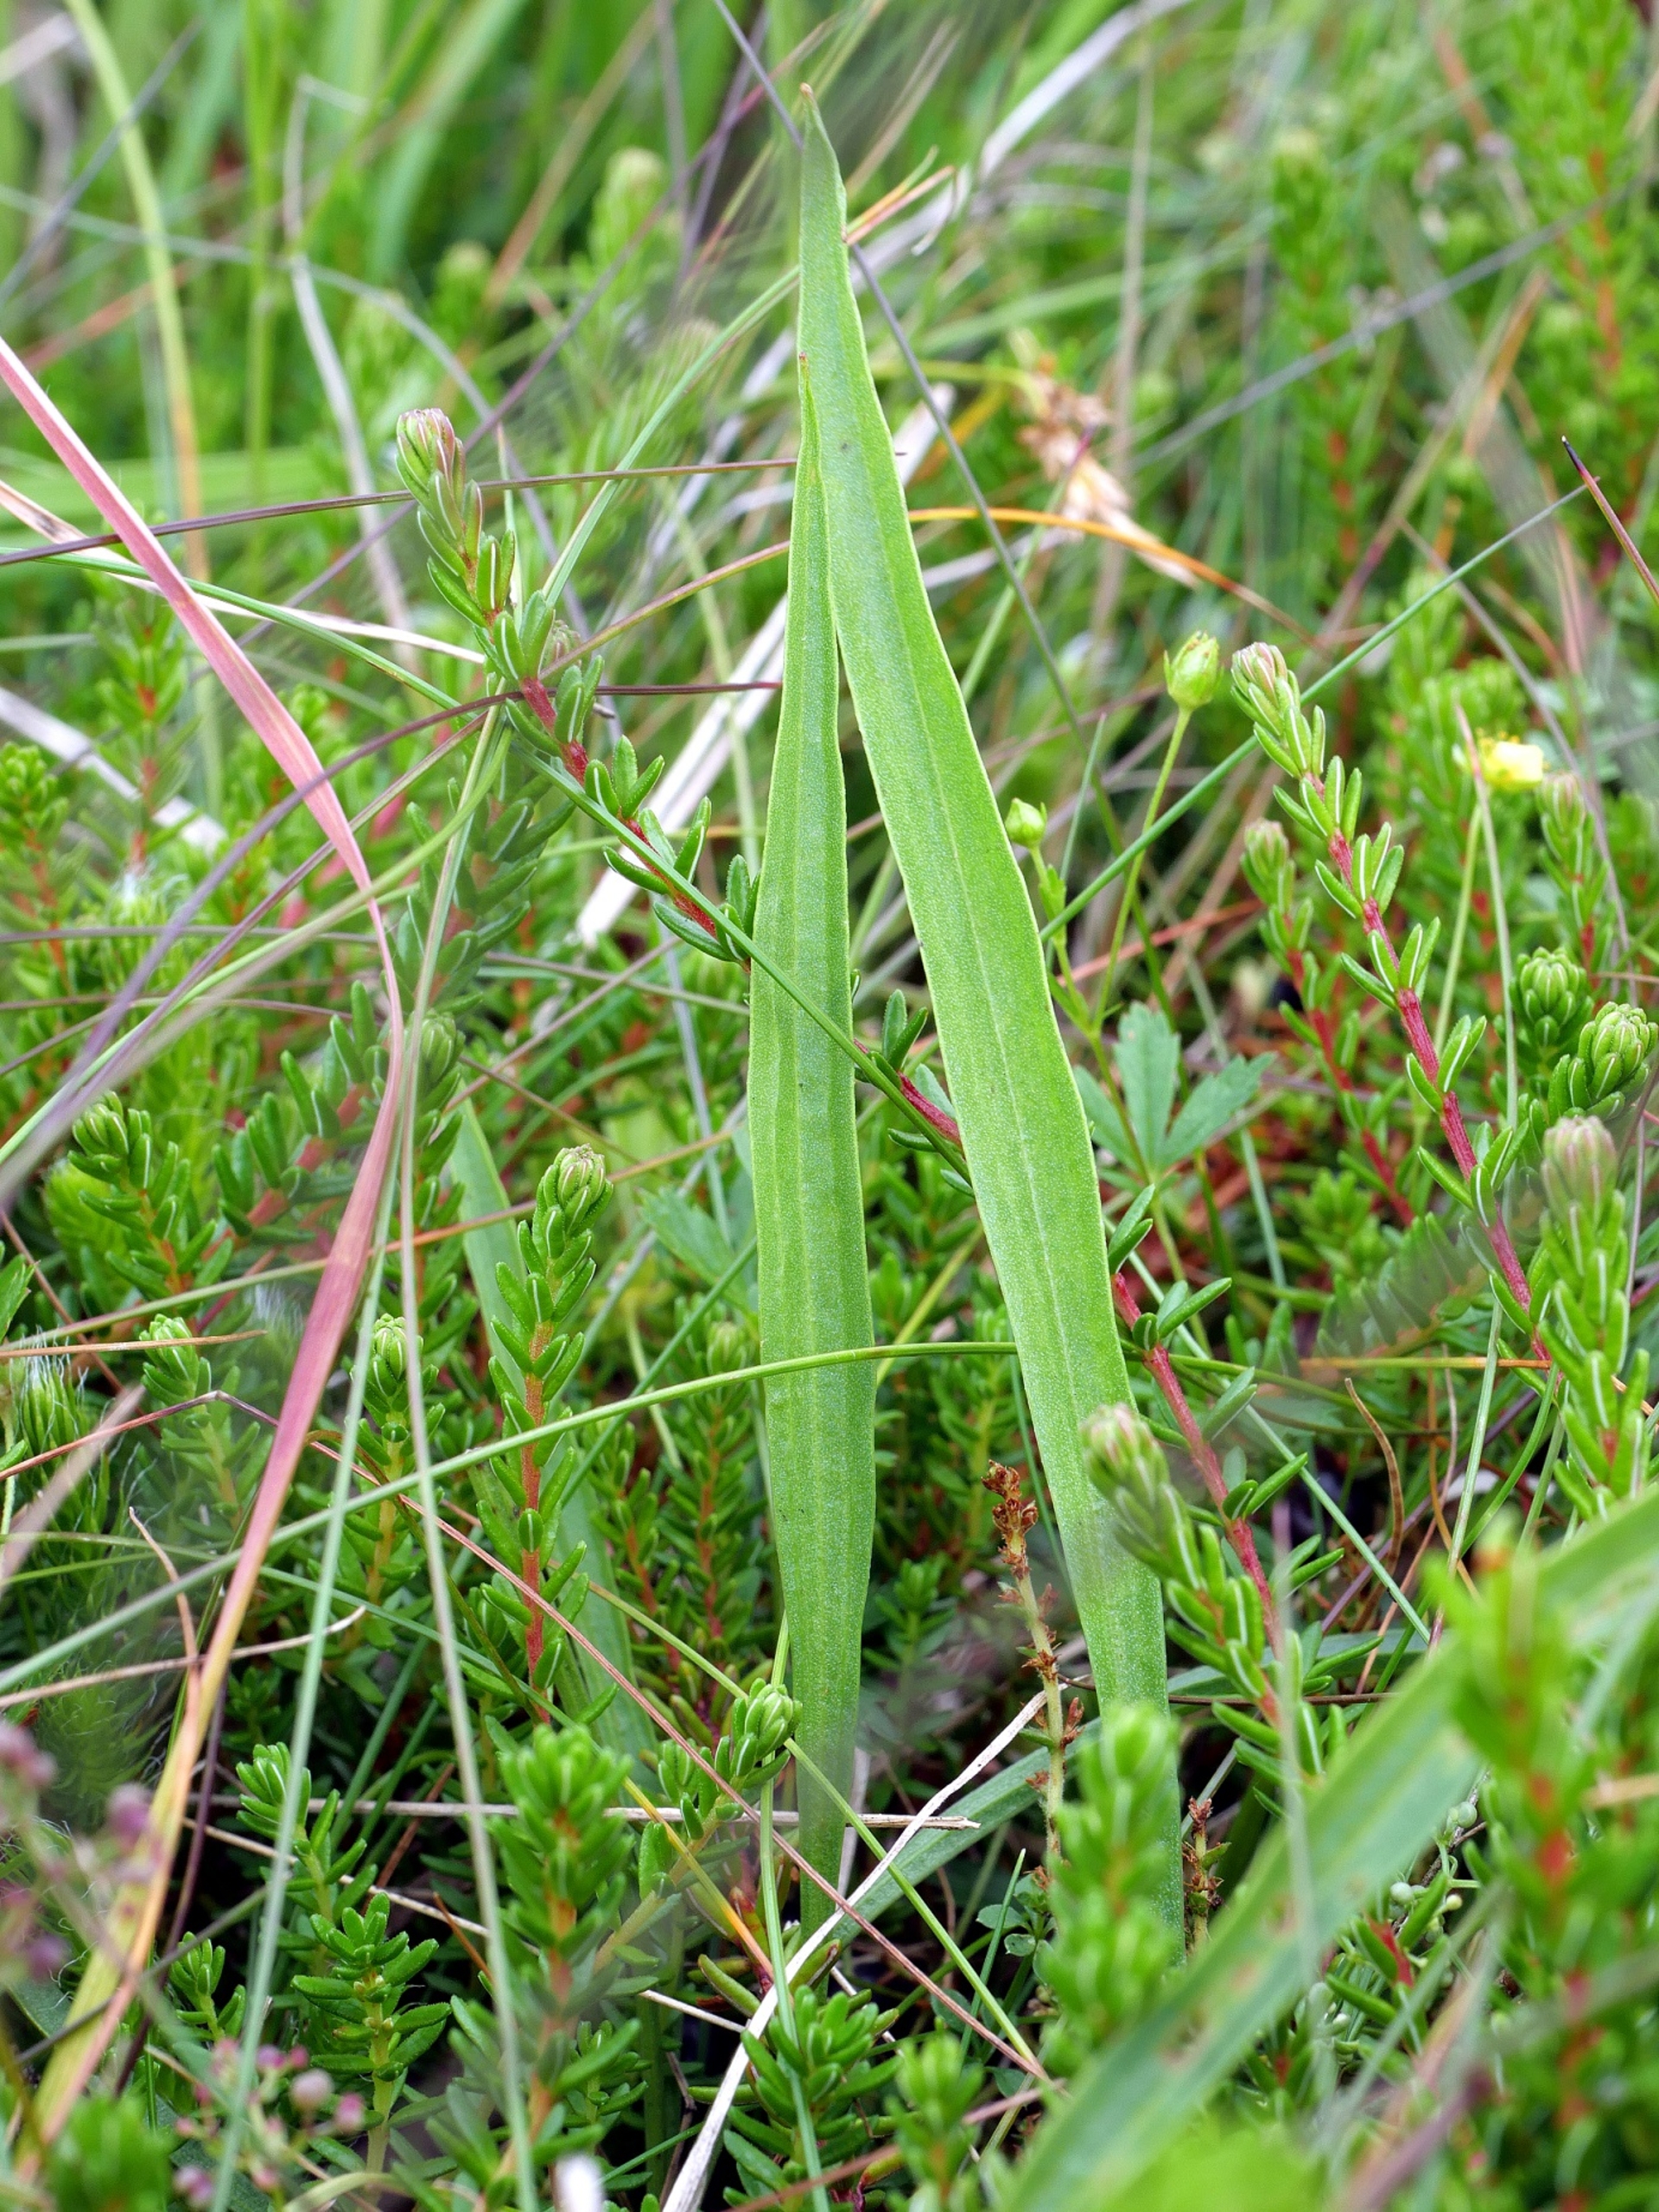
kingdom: Plantae
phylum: Tracheophyta
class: Magnoliopsida
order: Asterales
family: Asteraceae
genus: Scorzonera
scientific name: Scorzonera humilis
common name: Lav skorsoner
